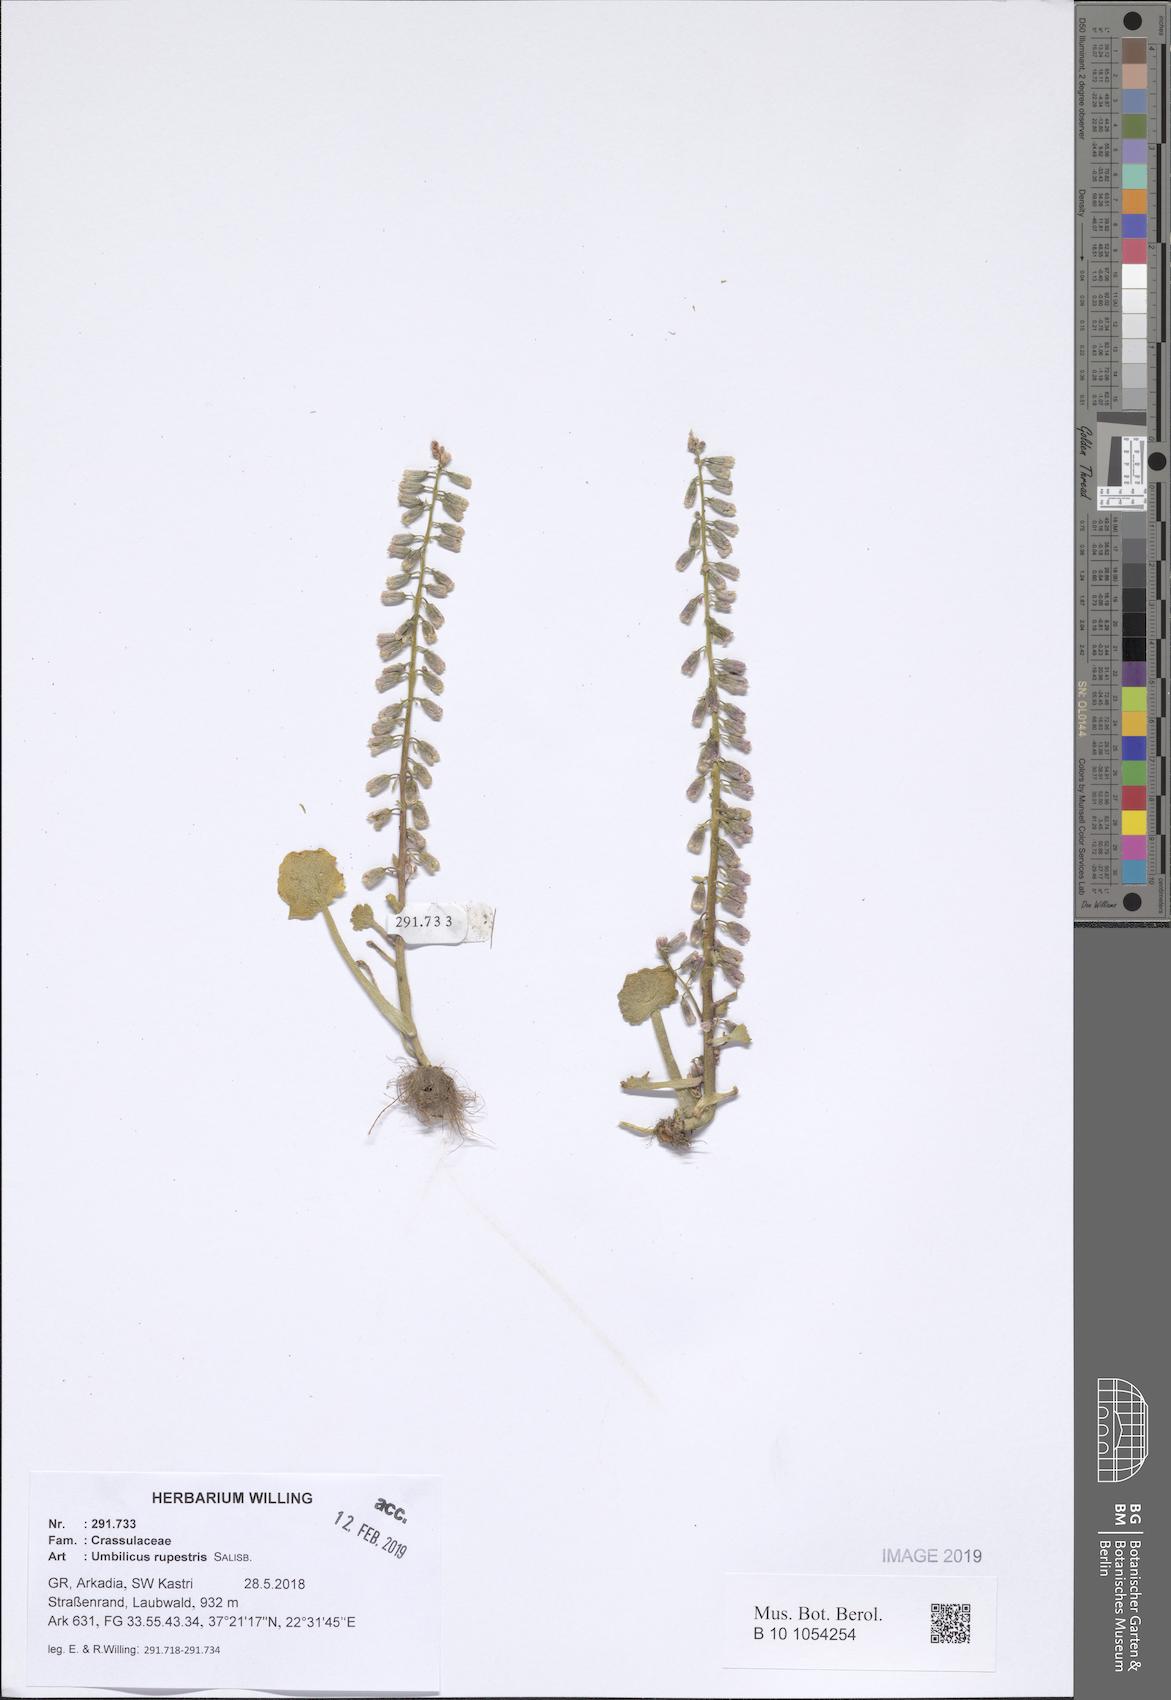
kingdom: Plantae
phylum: Tracheophyta
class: Magnoliopsida
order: Saxifragales
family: Crassulaceae
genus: Umbilicus
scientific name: Umbilicus rupestris
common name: Navelwort
